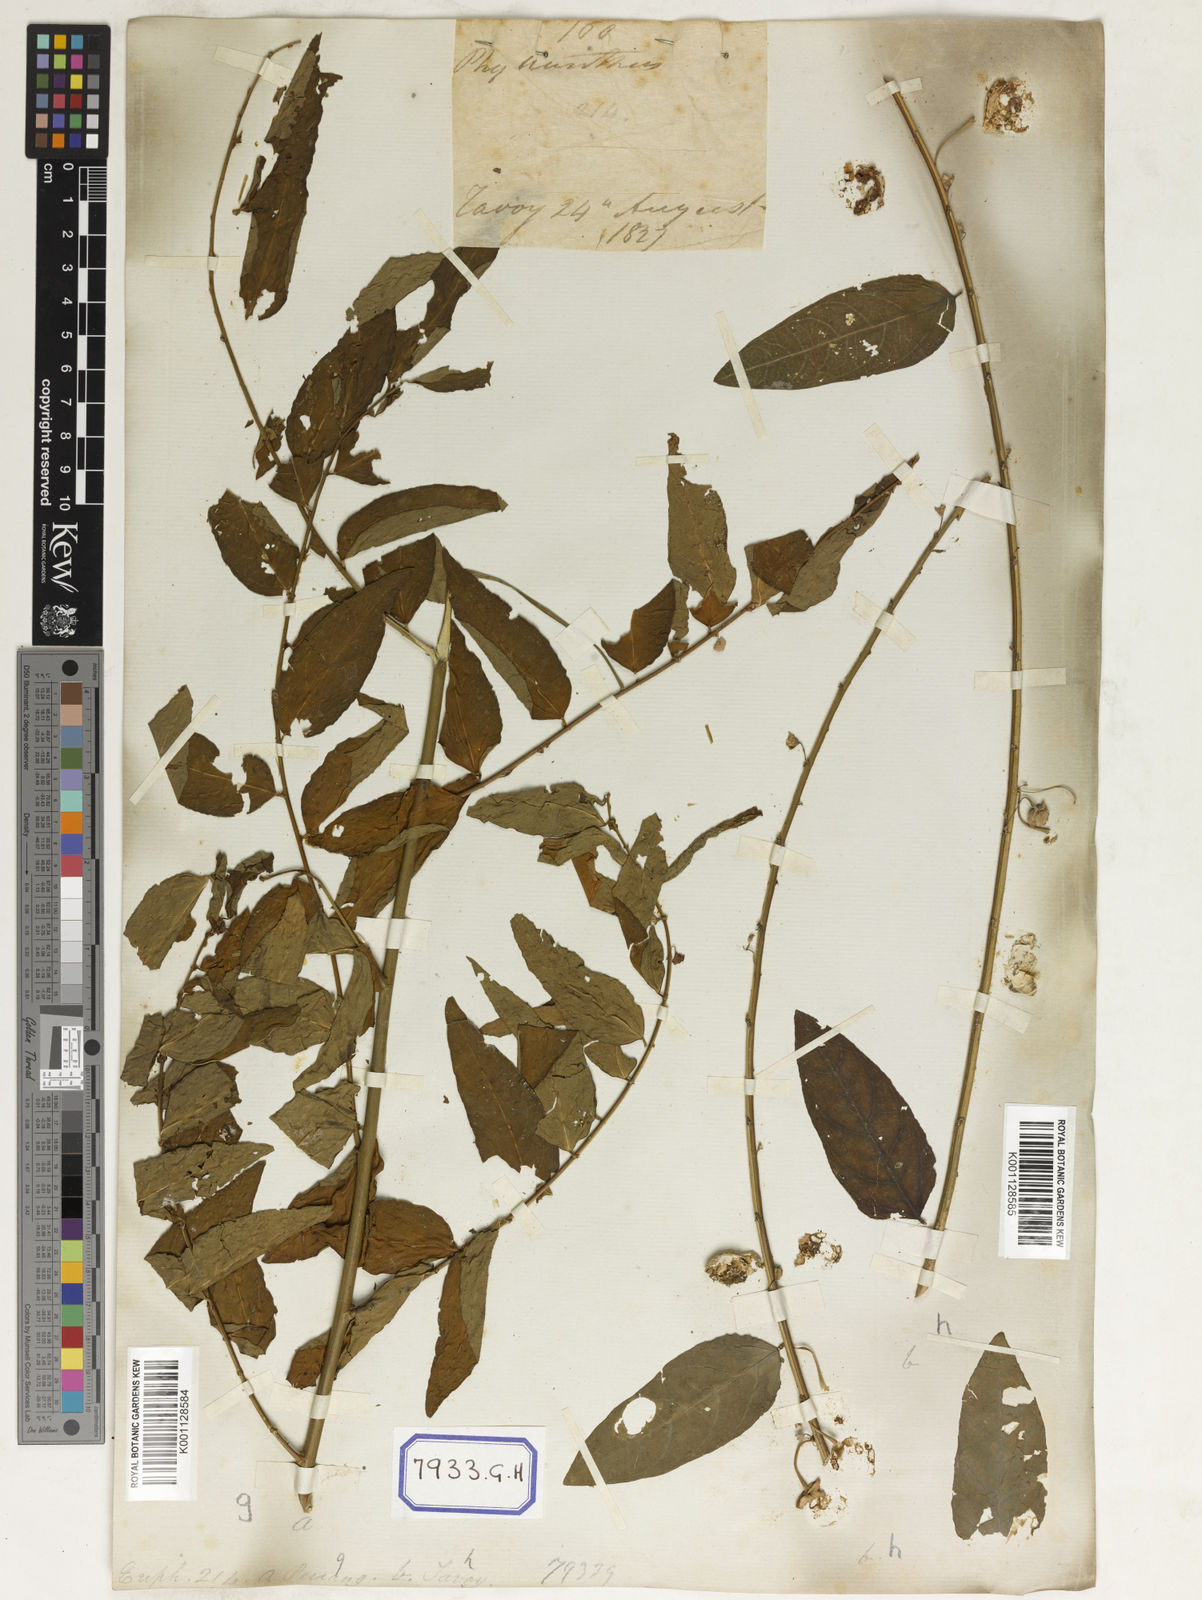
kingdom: Plantae
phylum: Tracheophyta
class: Magnoliopsida
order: Malpighiales
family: Euphorbiaceae
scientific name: Euphorbiaceae
